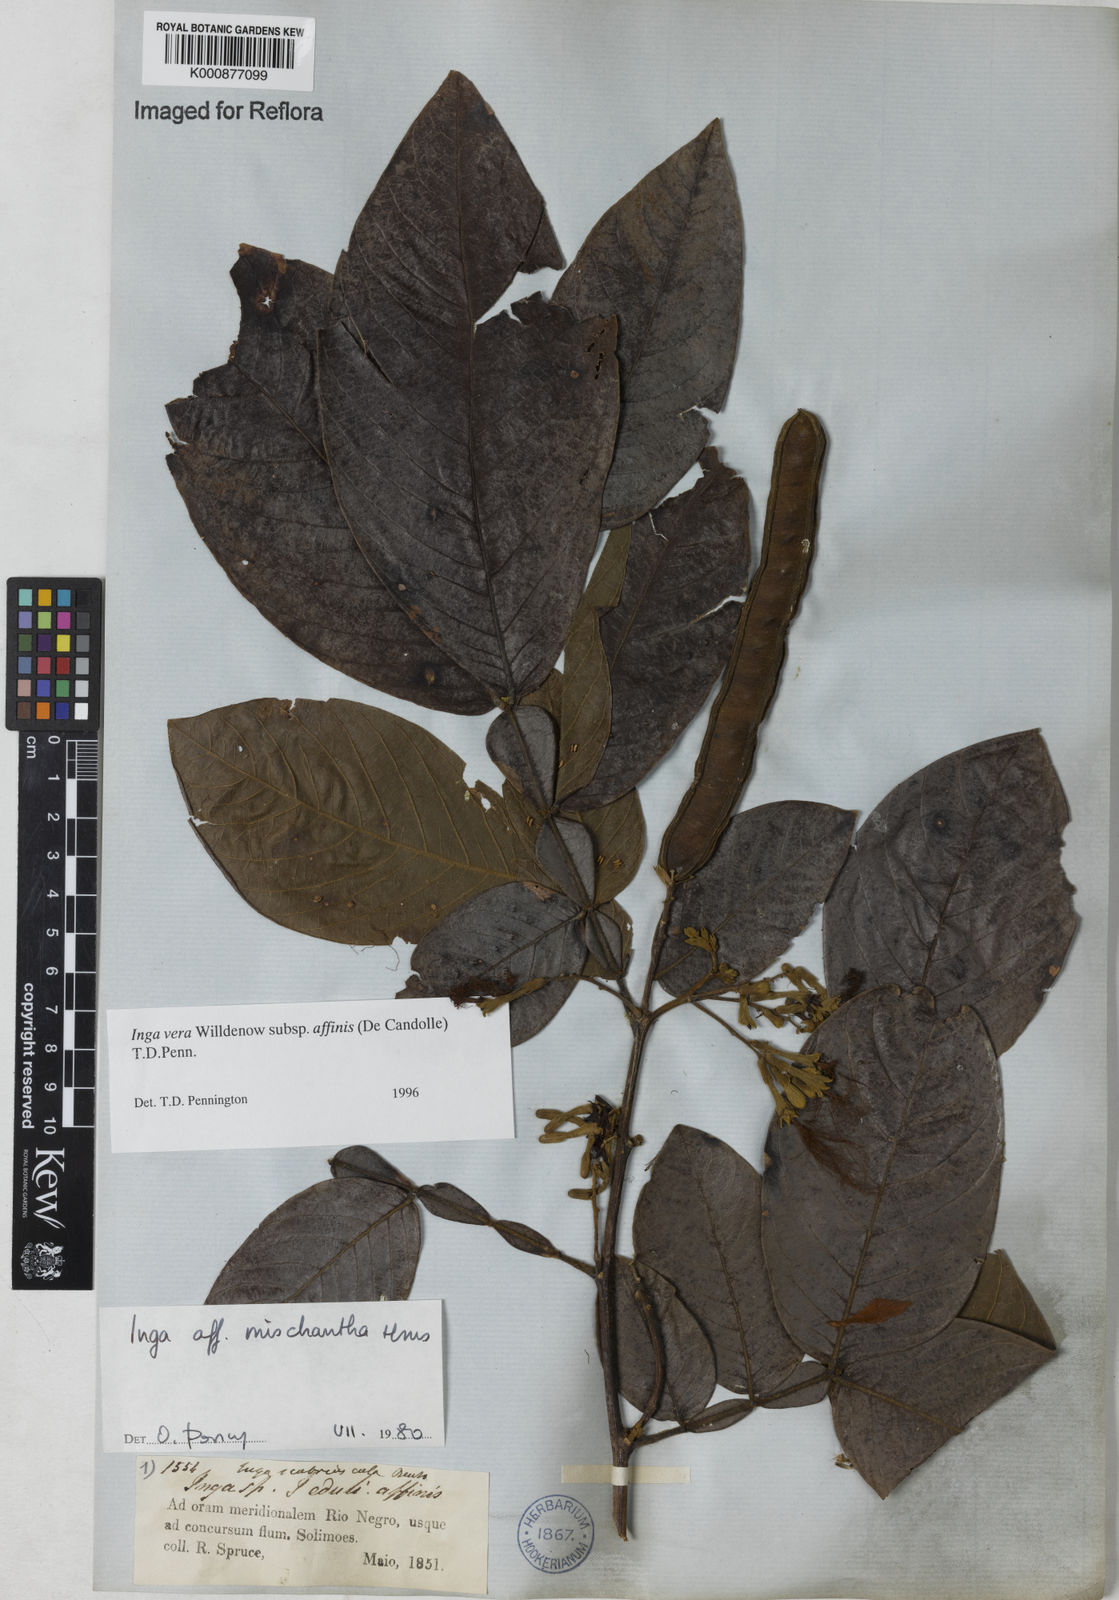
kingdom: Plantae
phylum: Tracheophyta
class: Magnoliopsida
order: Fabales
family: Fabaceae
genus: Inga
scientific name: Inga affinis
